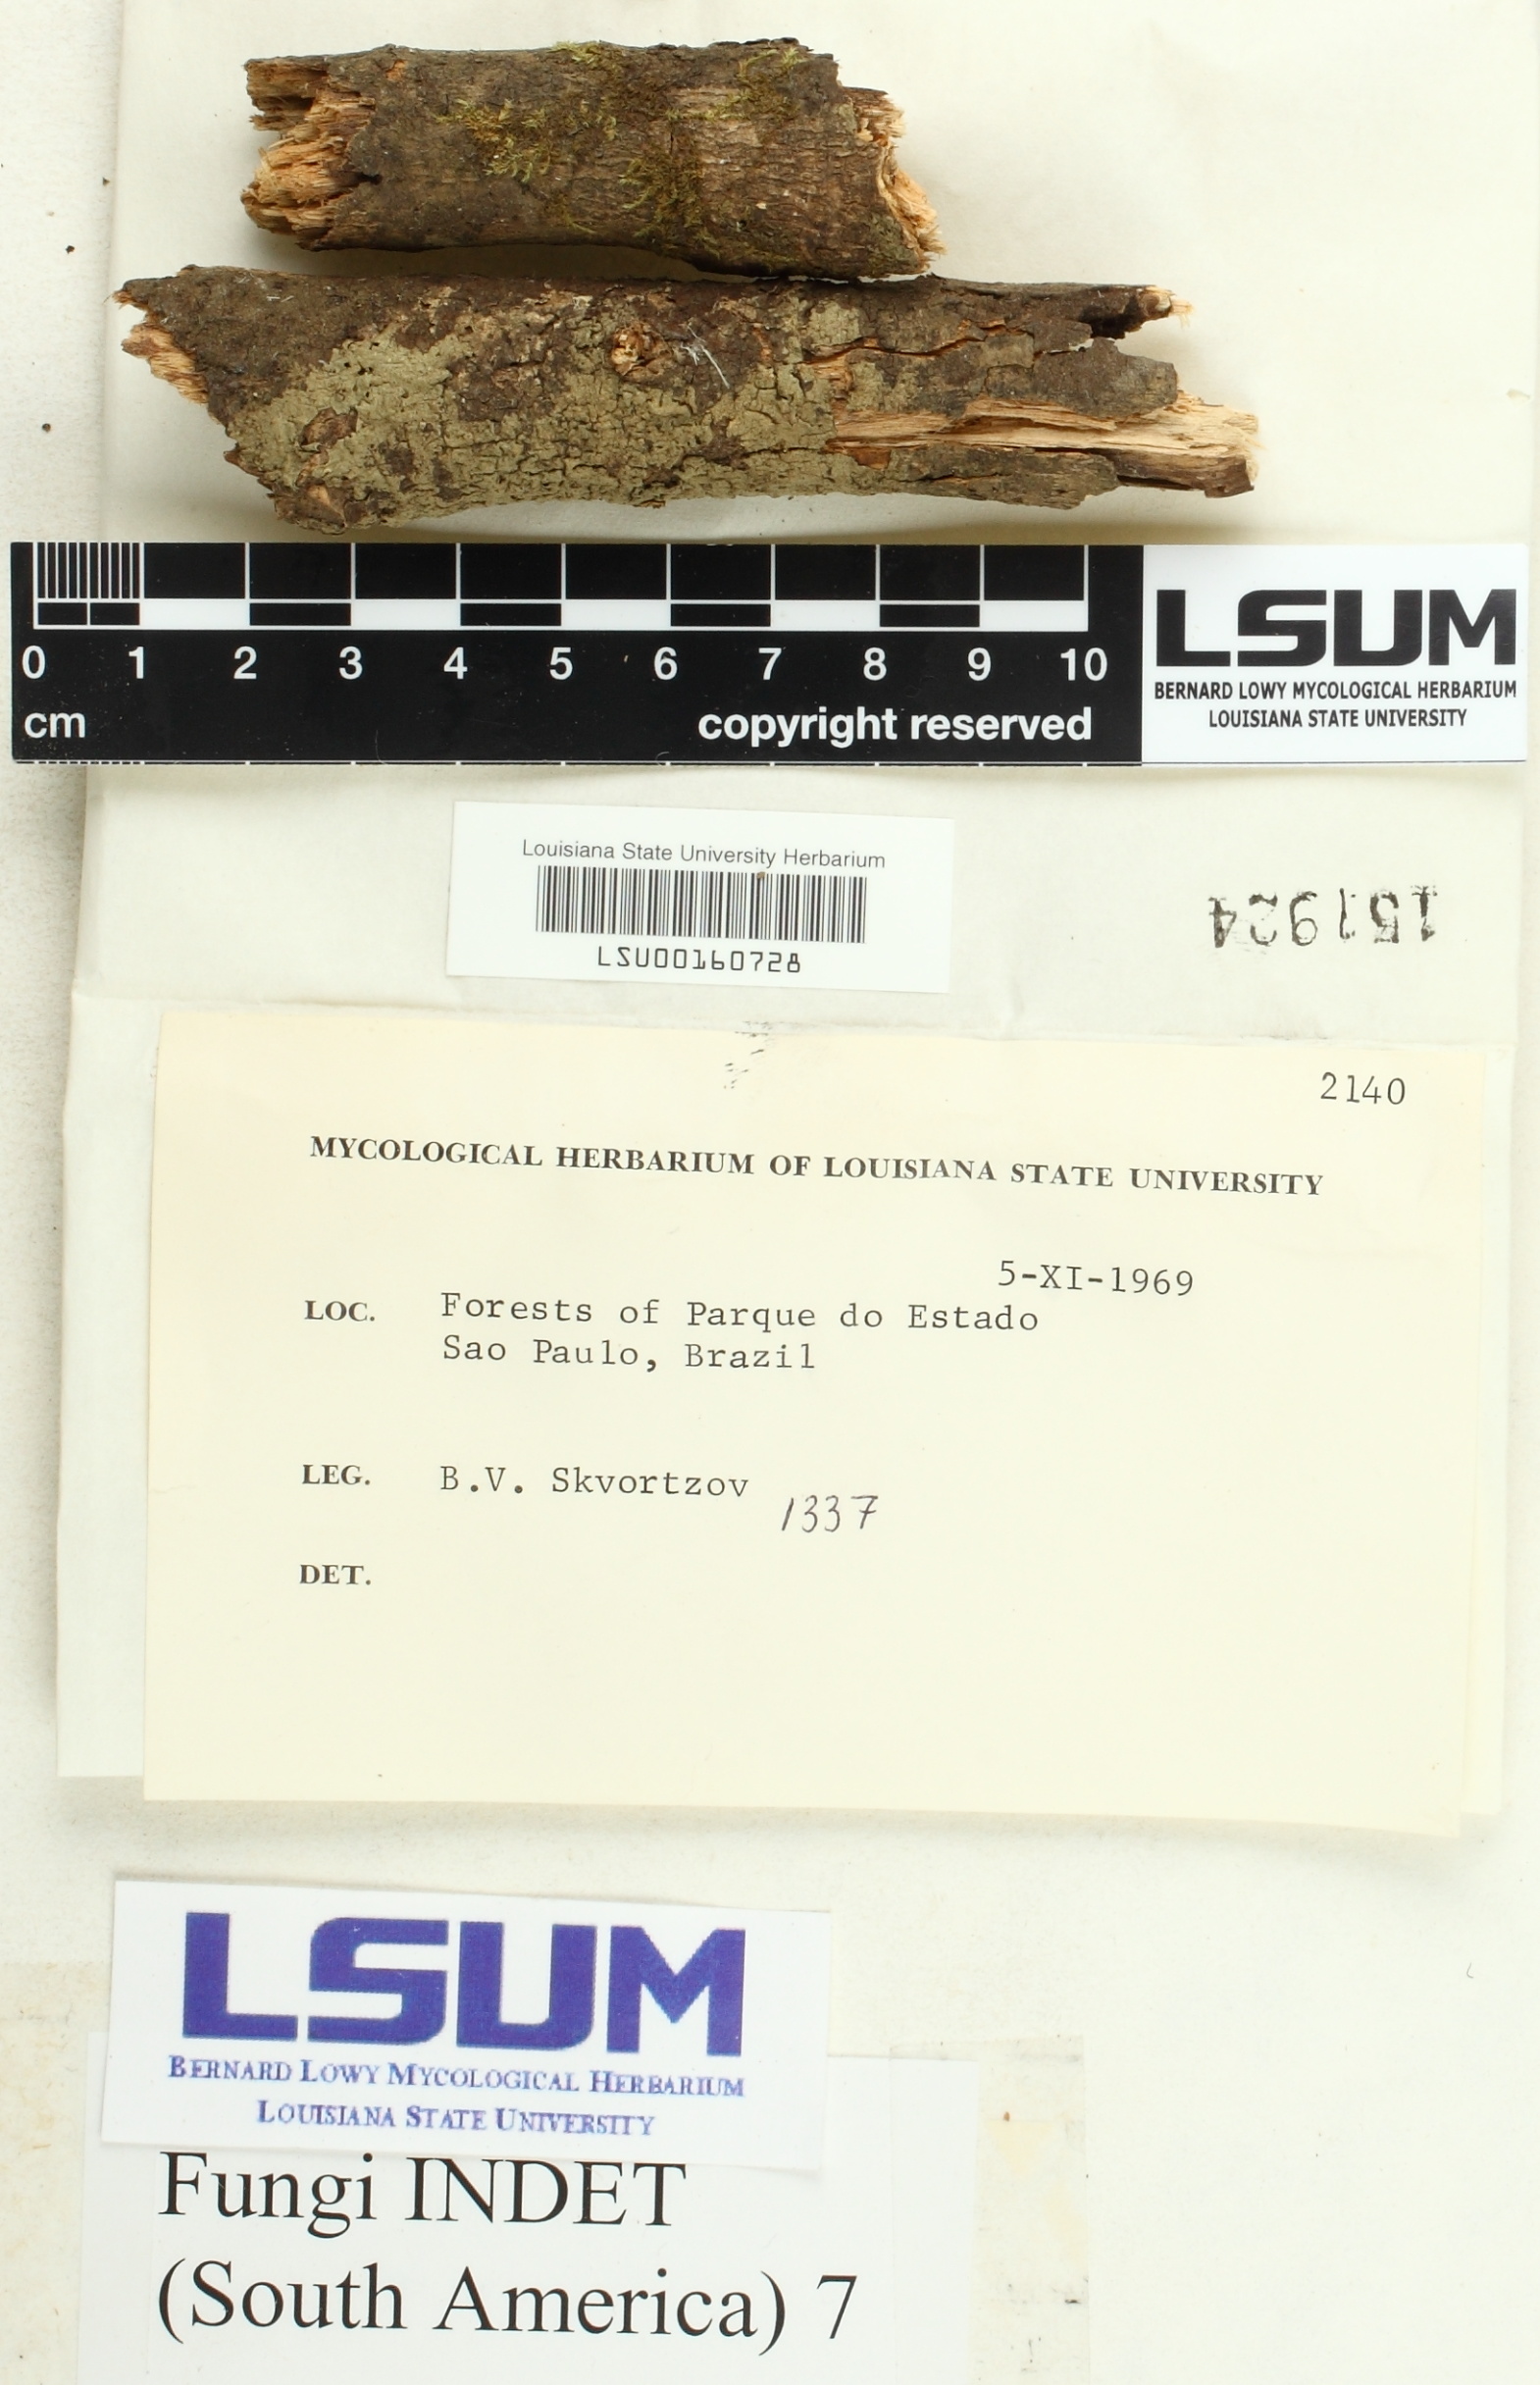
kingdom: Fungi
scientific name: Fungi
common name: Fungi
